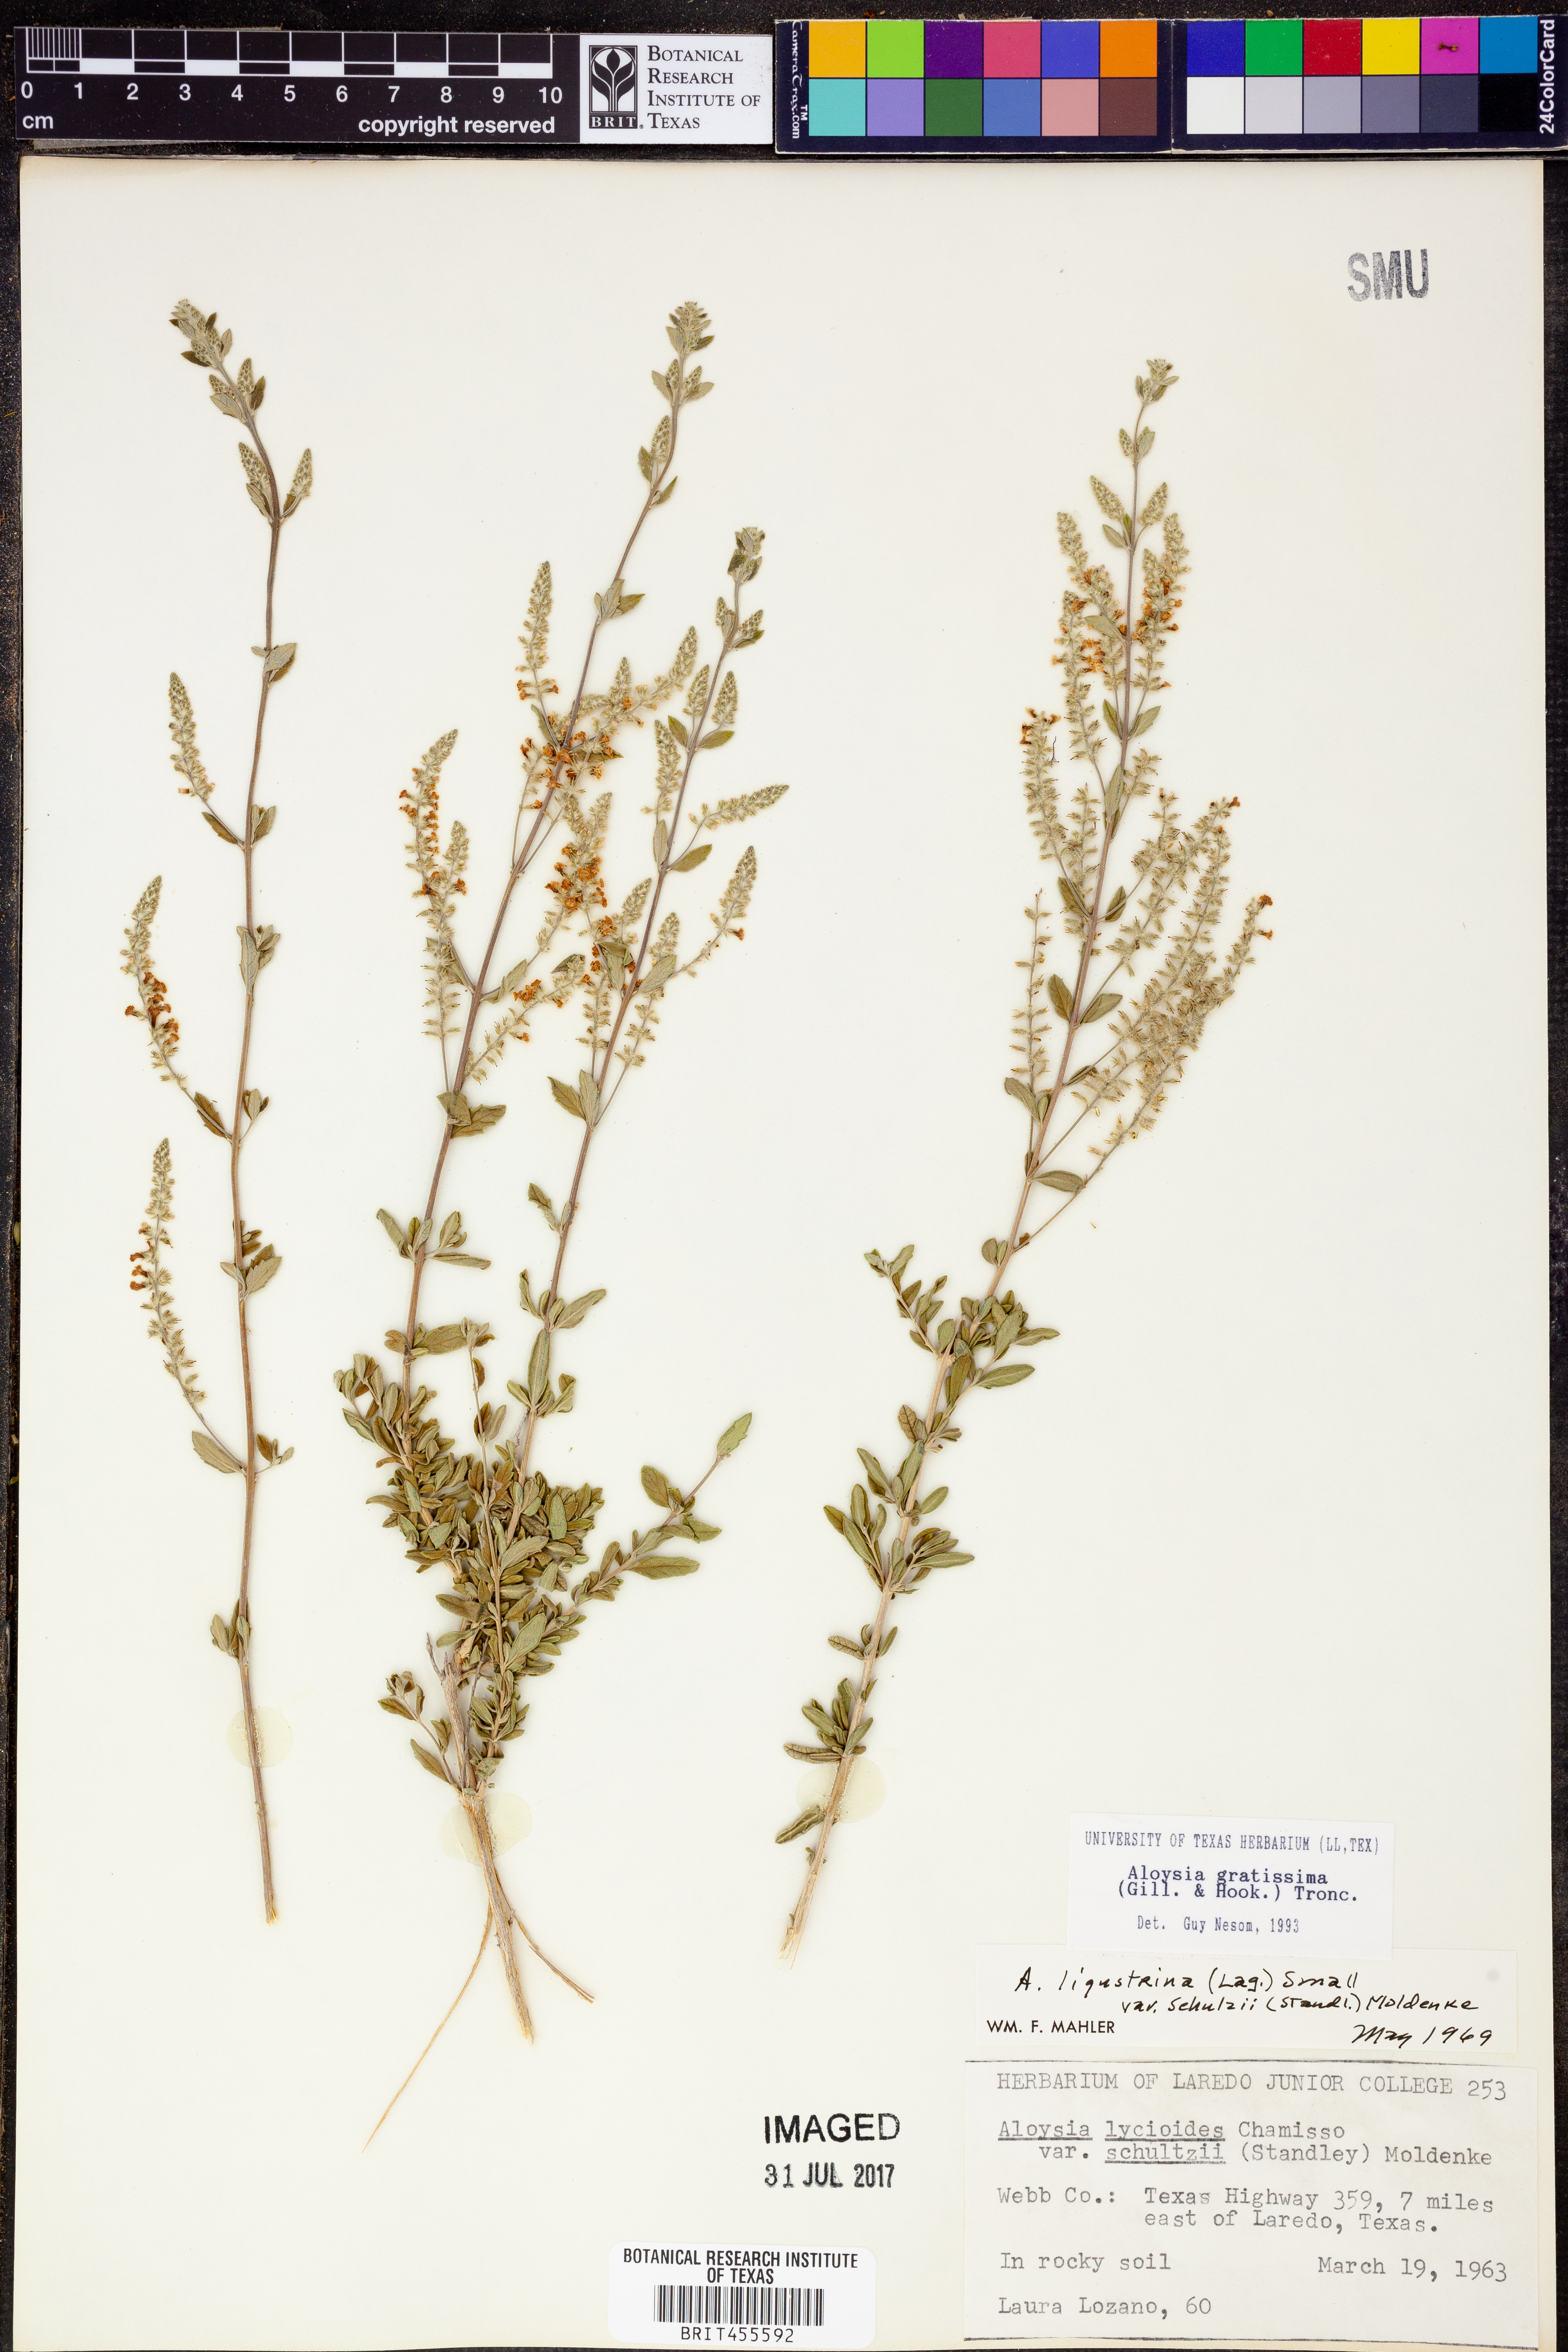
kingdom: Plantae
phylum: Tracheophyta
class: Magnoliopsida
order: Lamiales
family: Verbenaceae
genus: Aloysia
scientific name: Aloysia gratissima
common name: Common bee-brush
